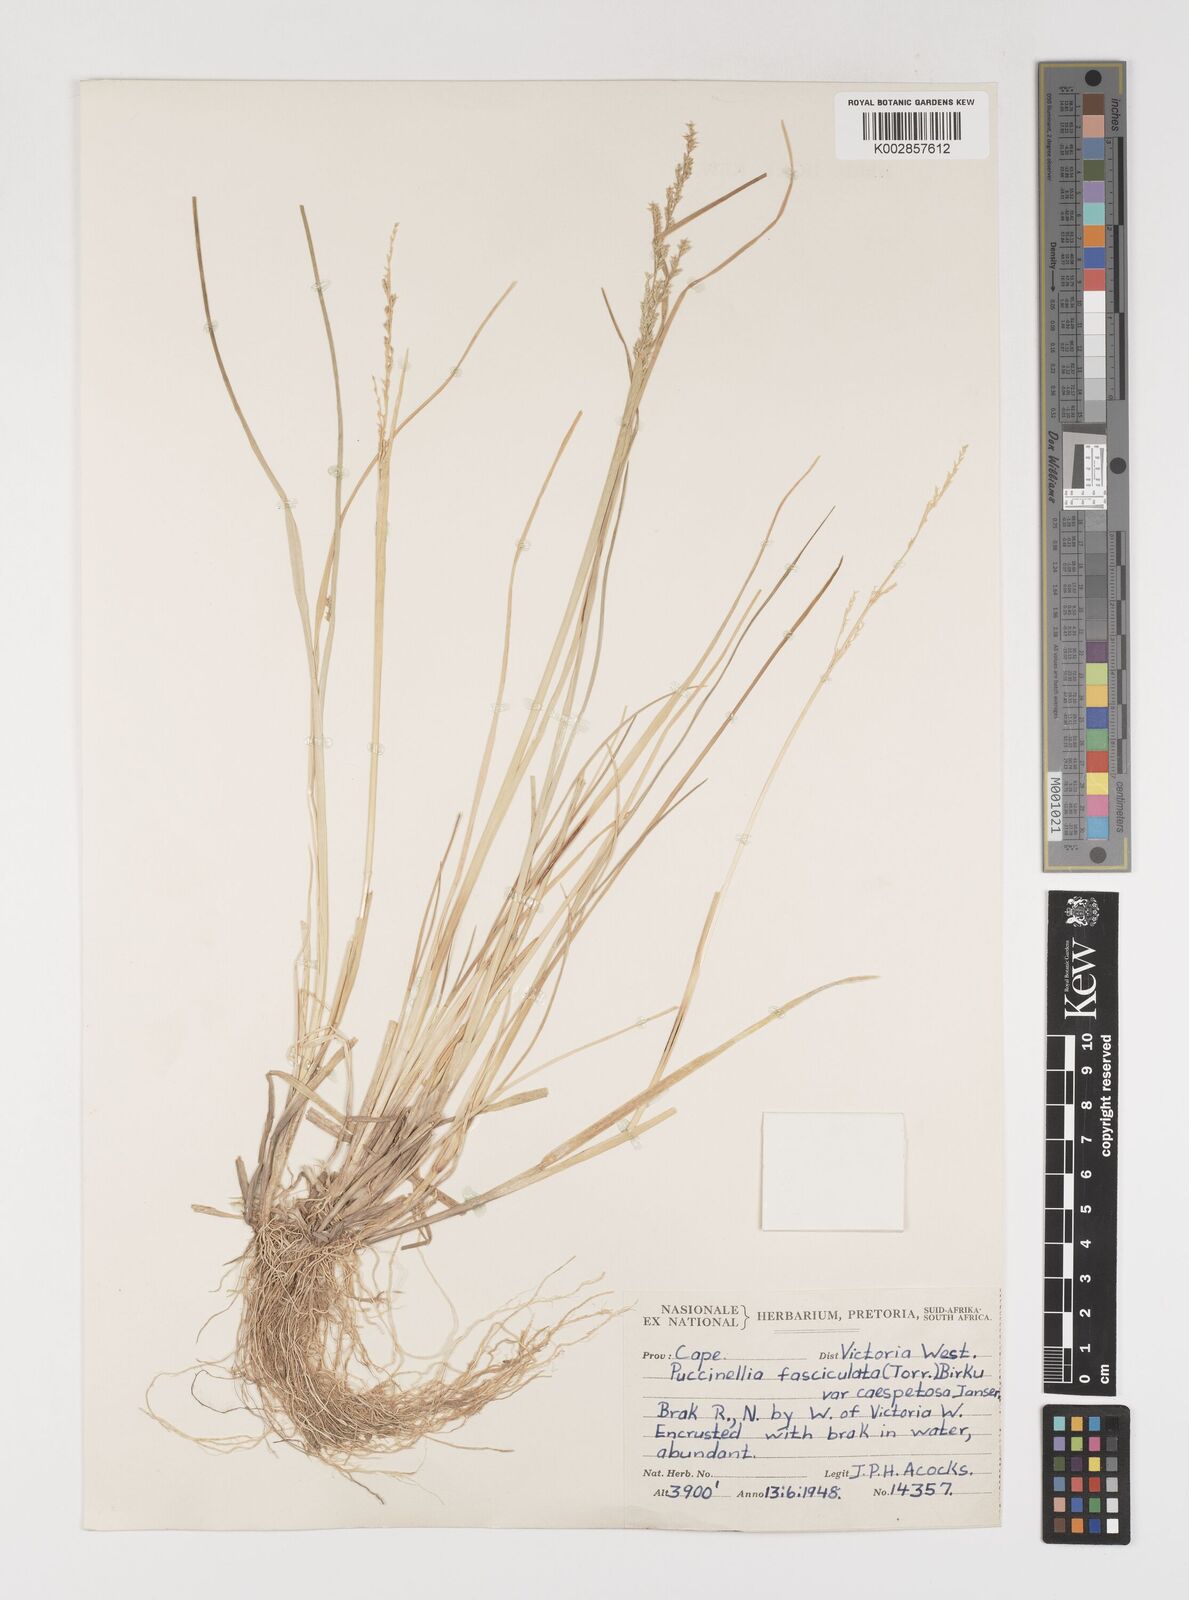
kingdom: Plantae
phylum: Tracheophyta
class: Liliopsida
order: Poales
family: Poaceae
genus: Puccinellia
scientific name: Puccinellia fasciculata
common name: Borrer's saltmarsh-grass
